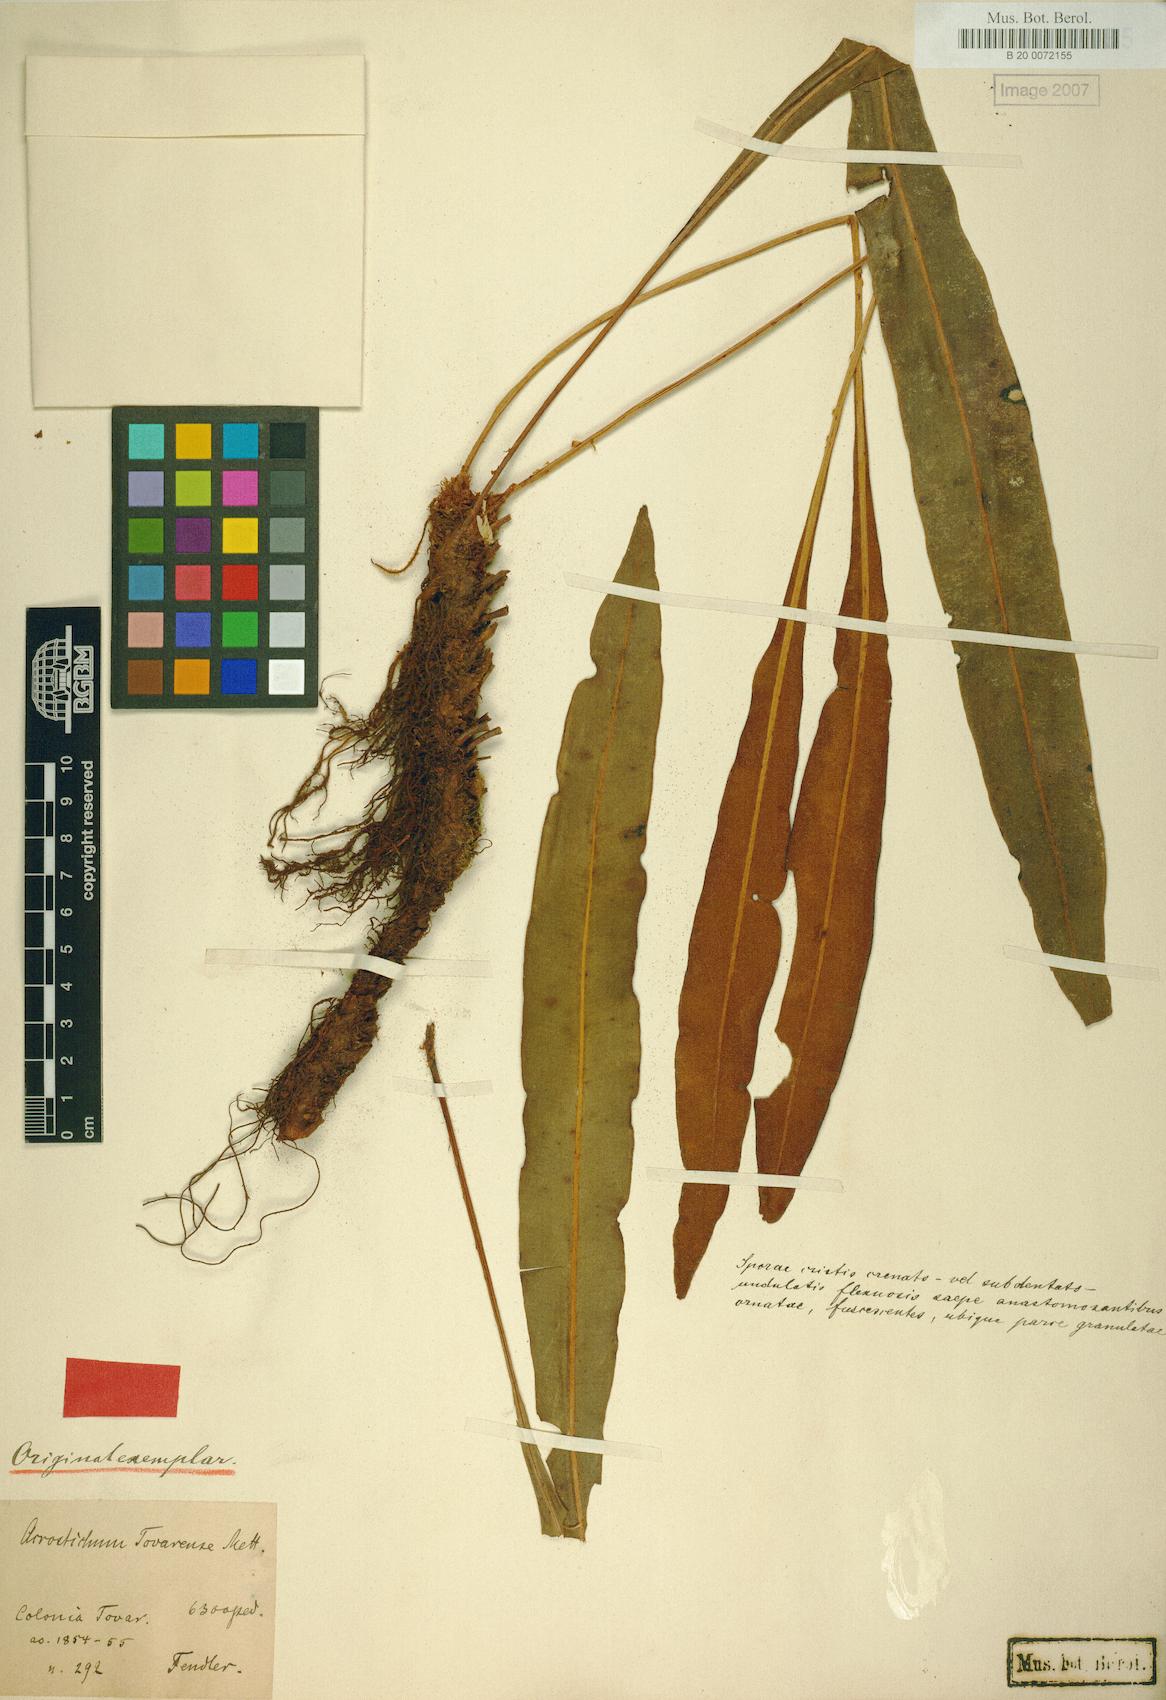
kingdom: Plantae
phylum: Tracheophyta
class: Polypodiopsida
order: Polypodiales
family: Pteridaceae
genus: Acrostichum
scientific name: Acrostichum Elaphoglossum tovarense
